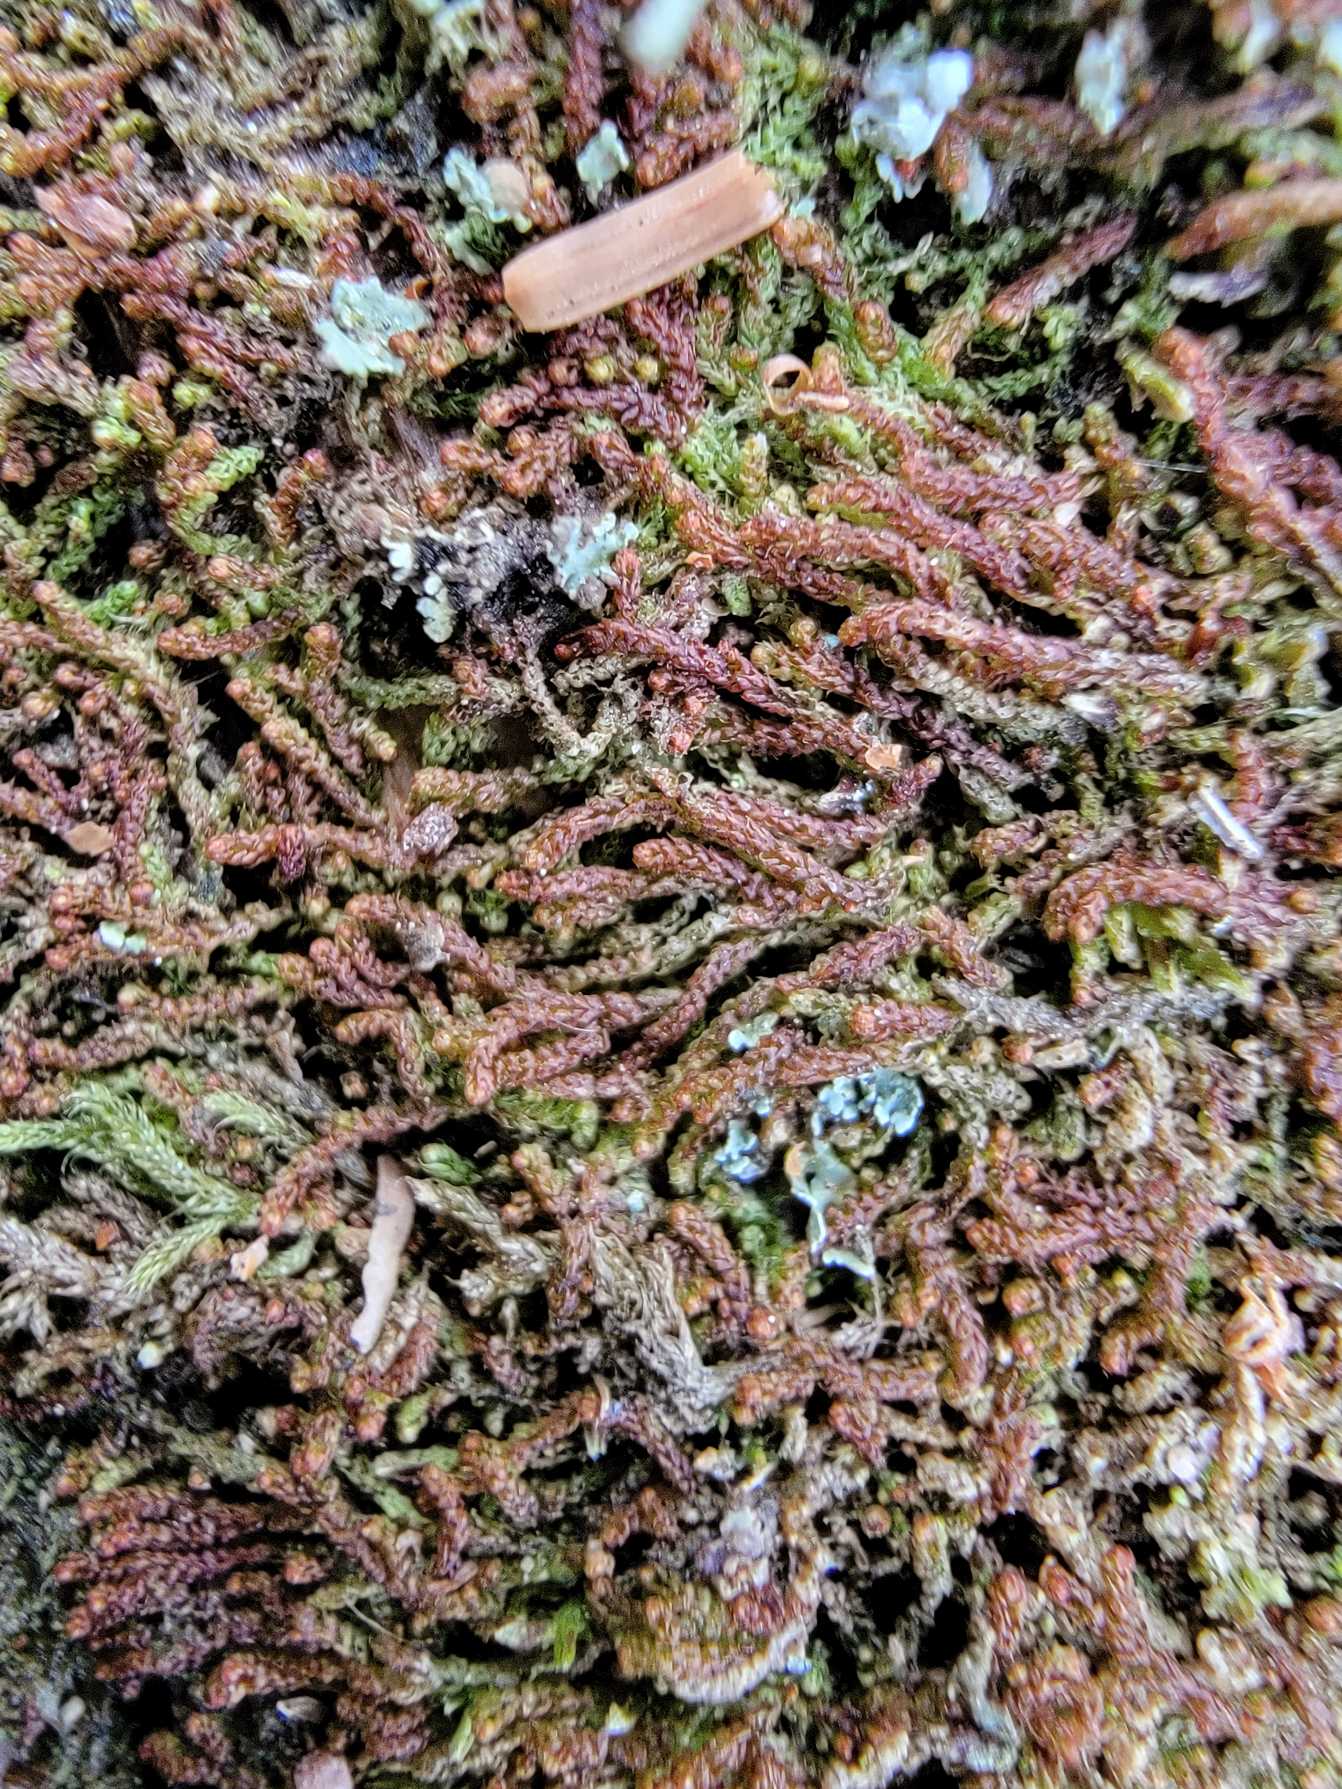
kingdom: Plantae
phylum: Marchantiophyta
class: Jungermanniopsida
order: Jungermanniales
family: Cephaloziaceae
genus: Nowellia
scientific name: Nowellia curvifolia
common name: Krumbladet stødmos
